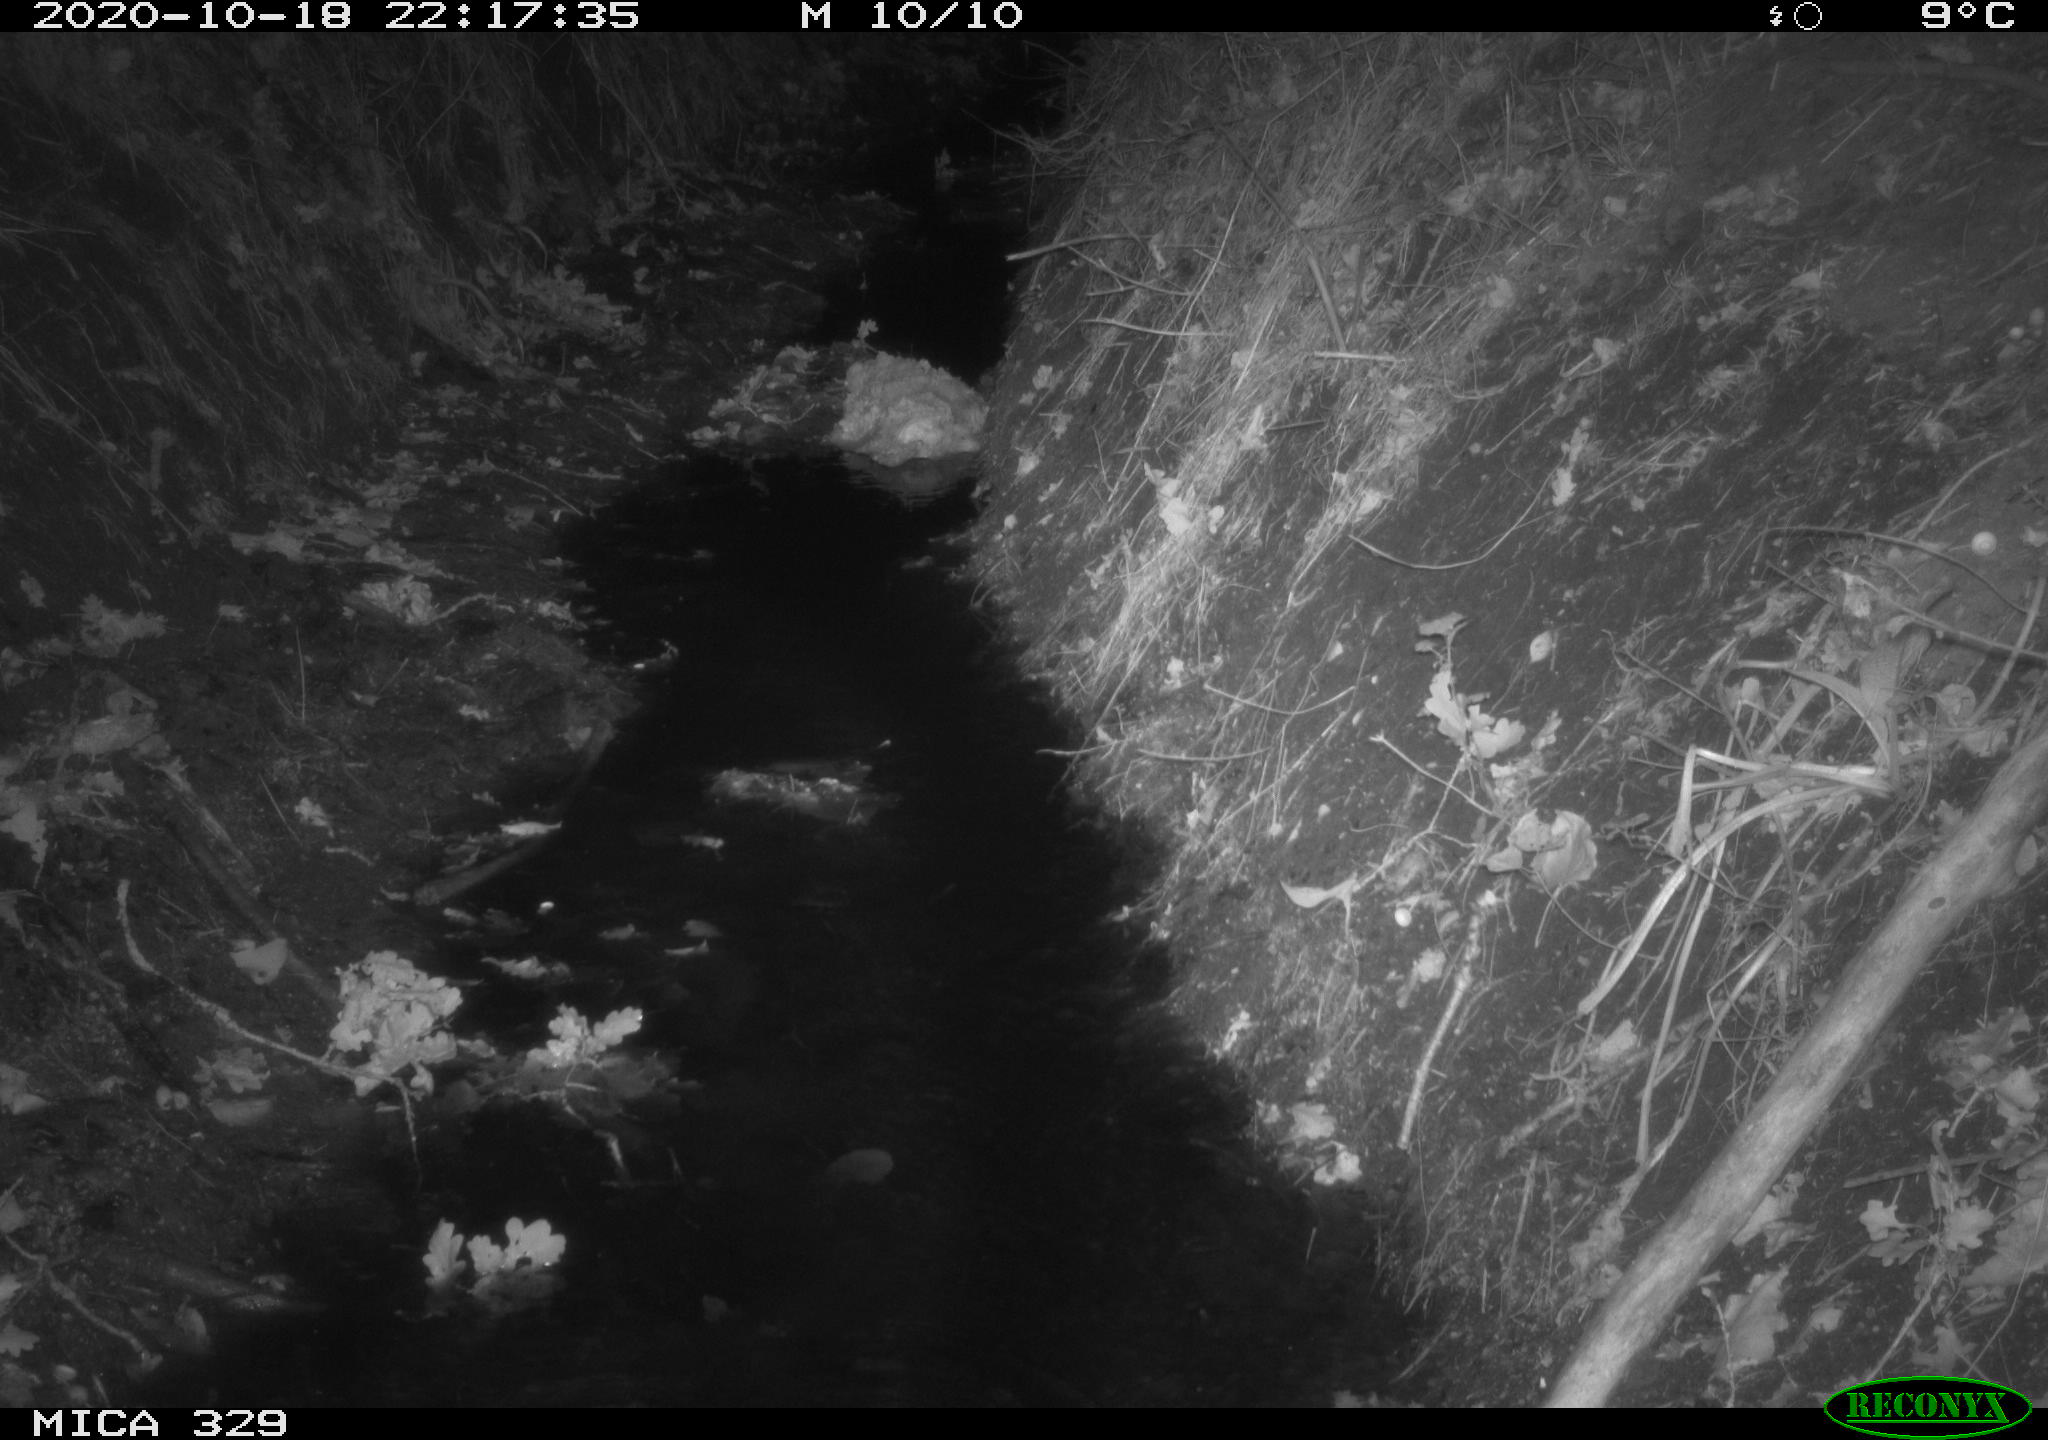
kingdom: Animalia
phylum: Chordata
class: Mammalia
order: Rodentia
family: Cricetidae
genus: Ondatra
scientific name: Ondatra zibethicus
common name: Muskrat
